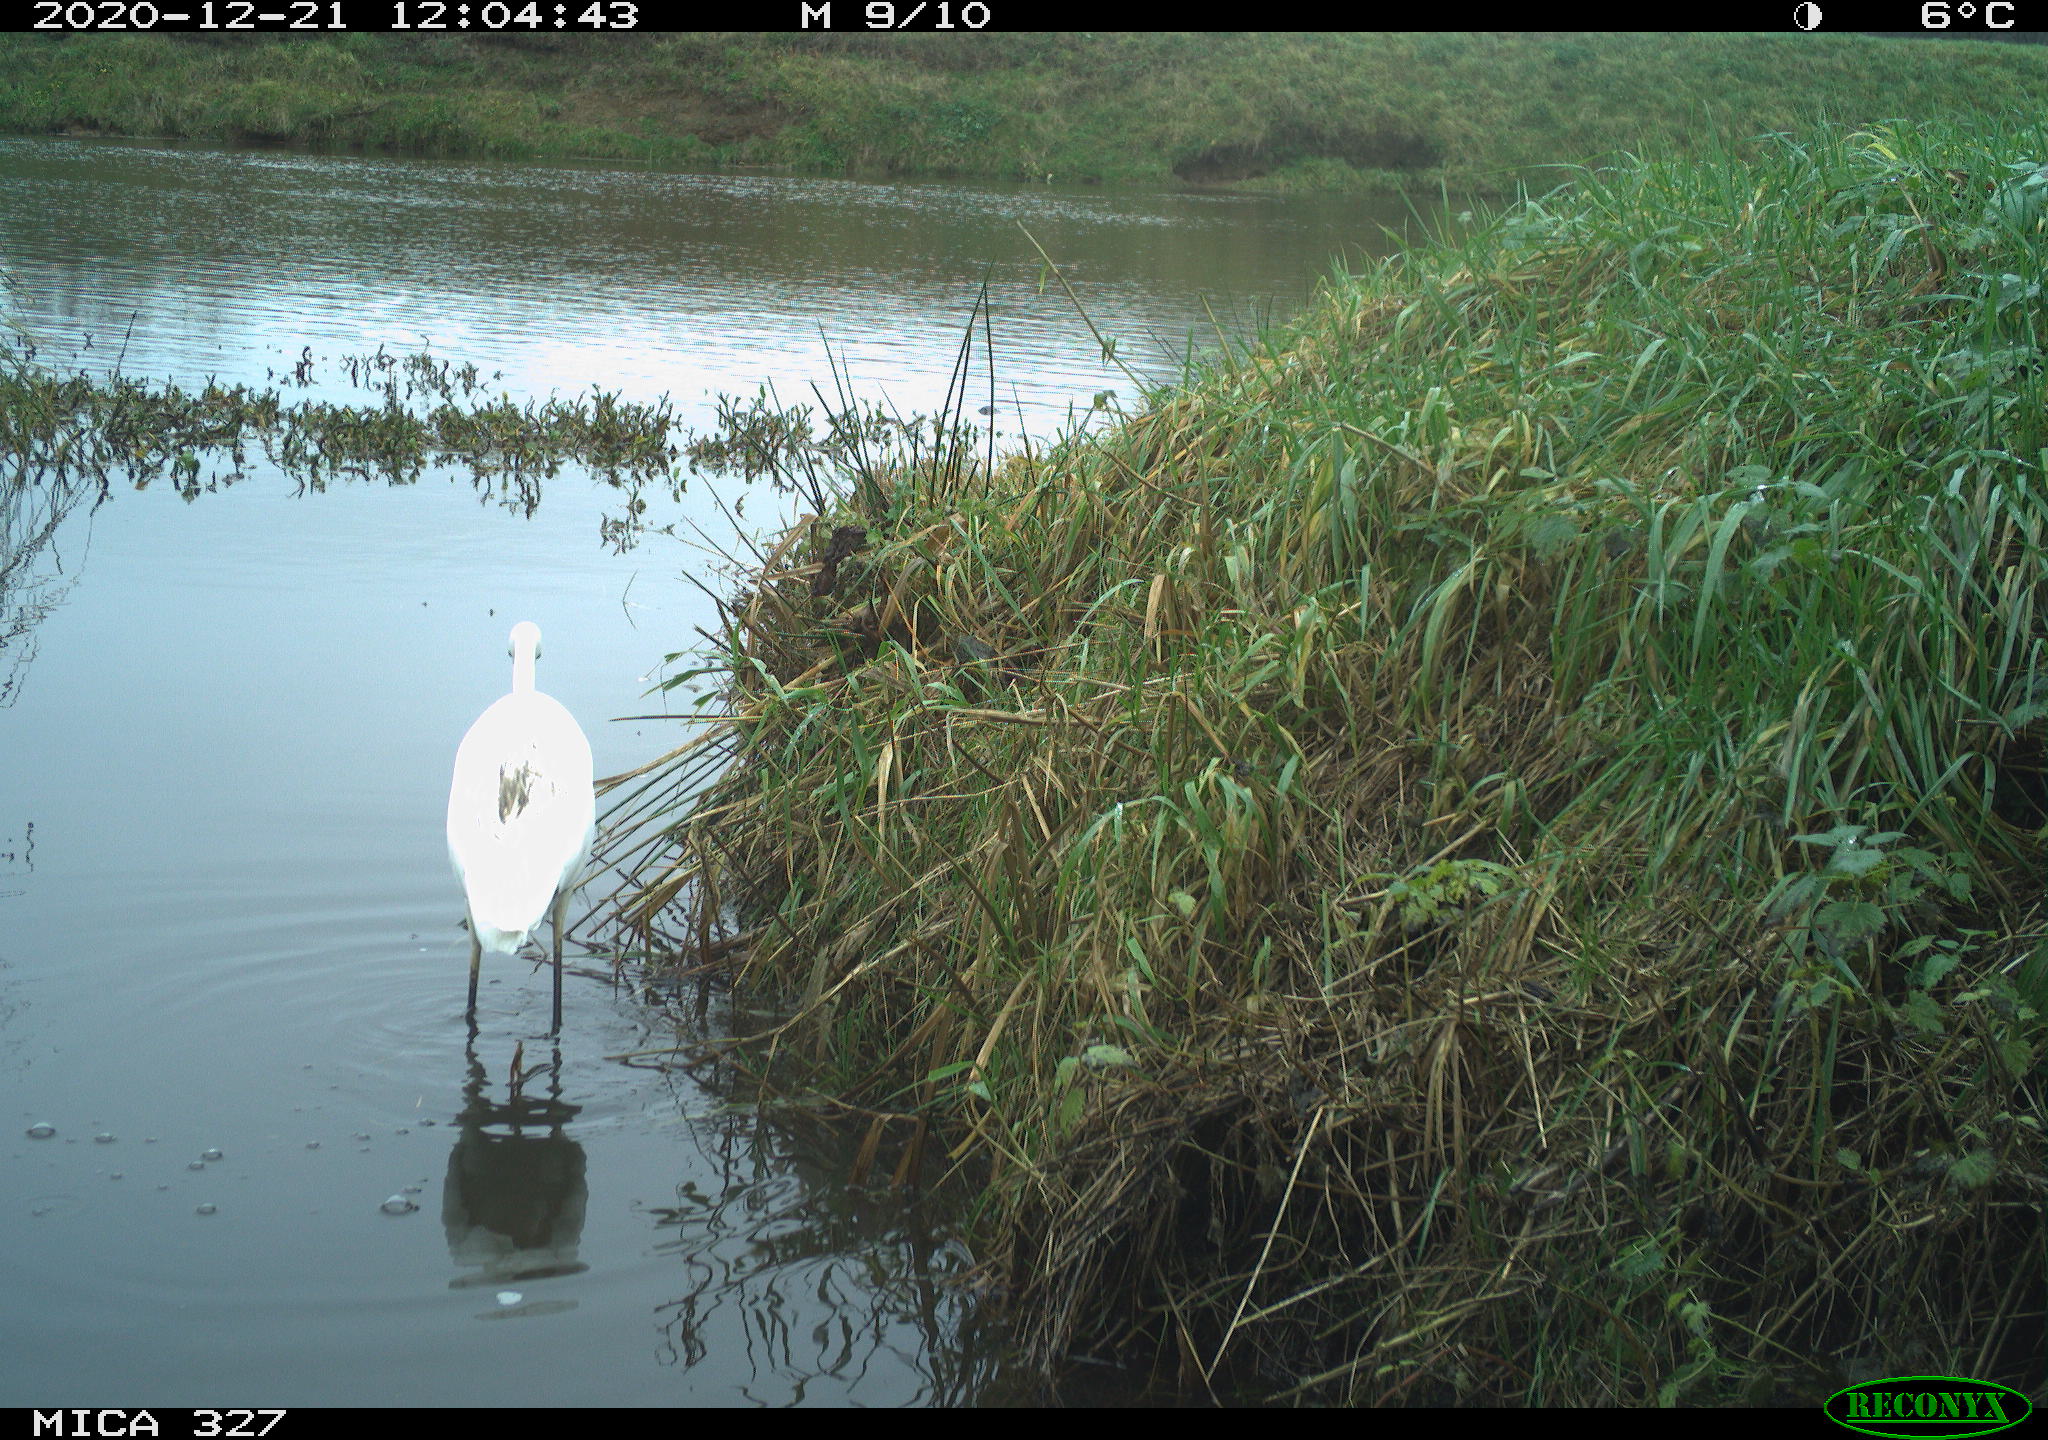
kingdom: Animalia
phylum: Chordata
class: Aves
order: Pelecaniformes
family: Ardeidae
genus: Ardea
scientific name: Ardea alba
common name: Great egret
